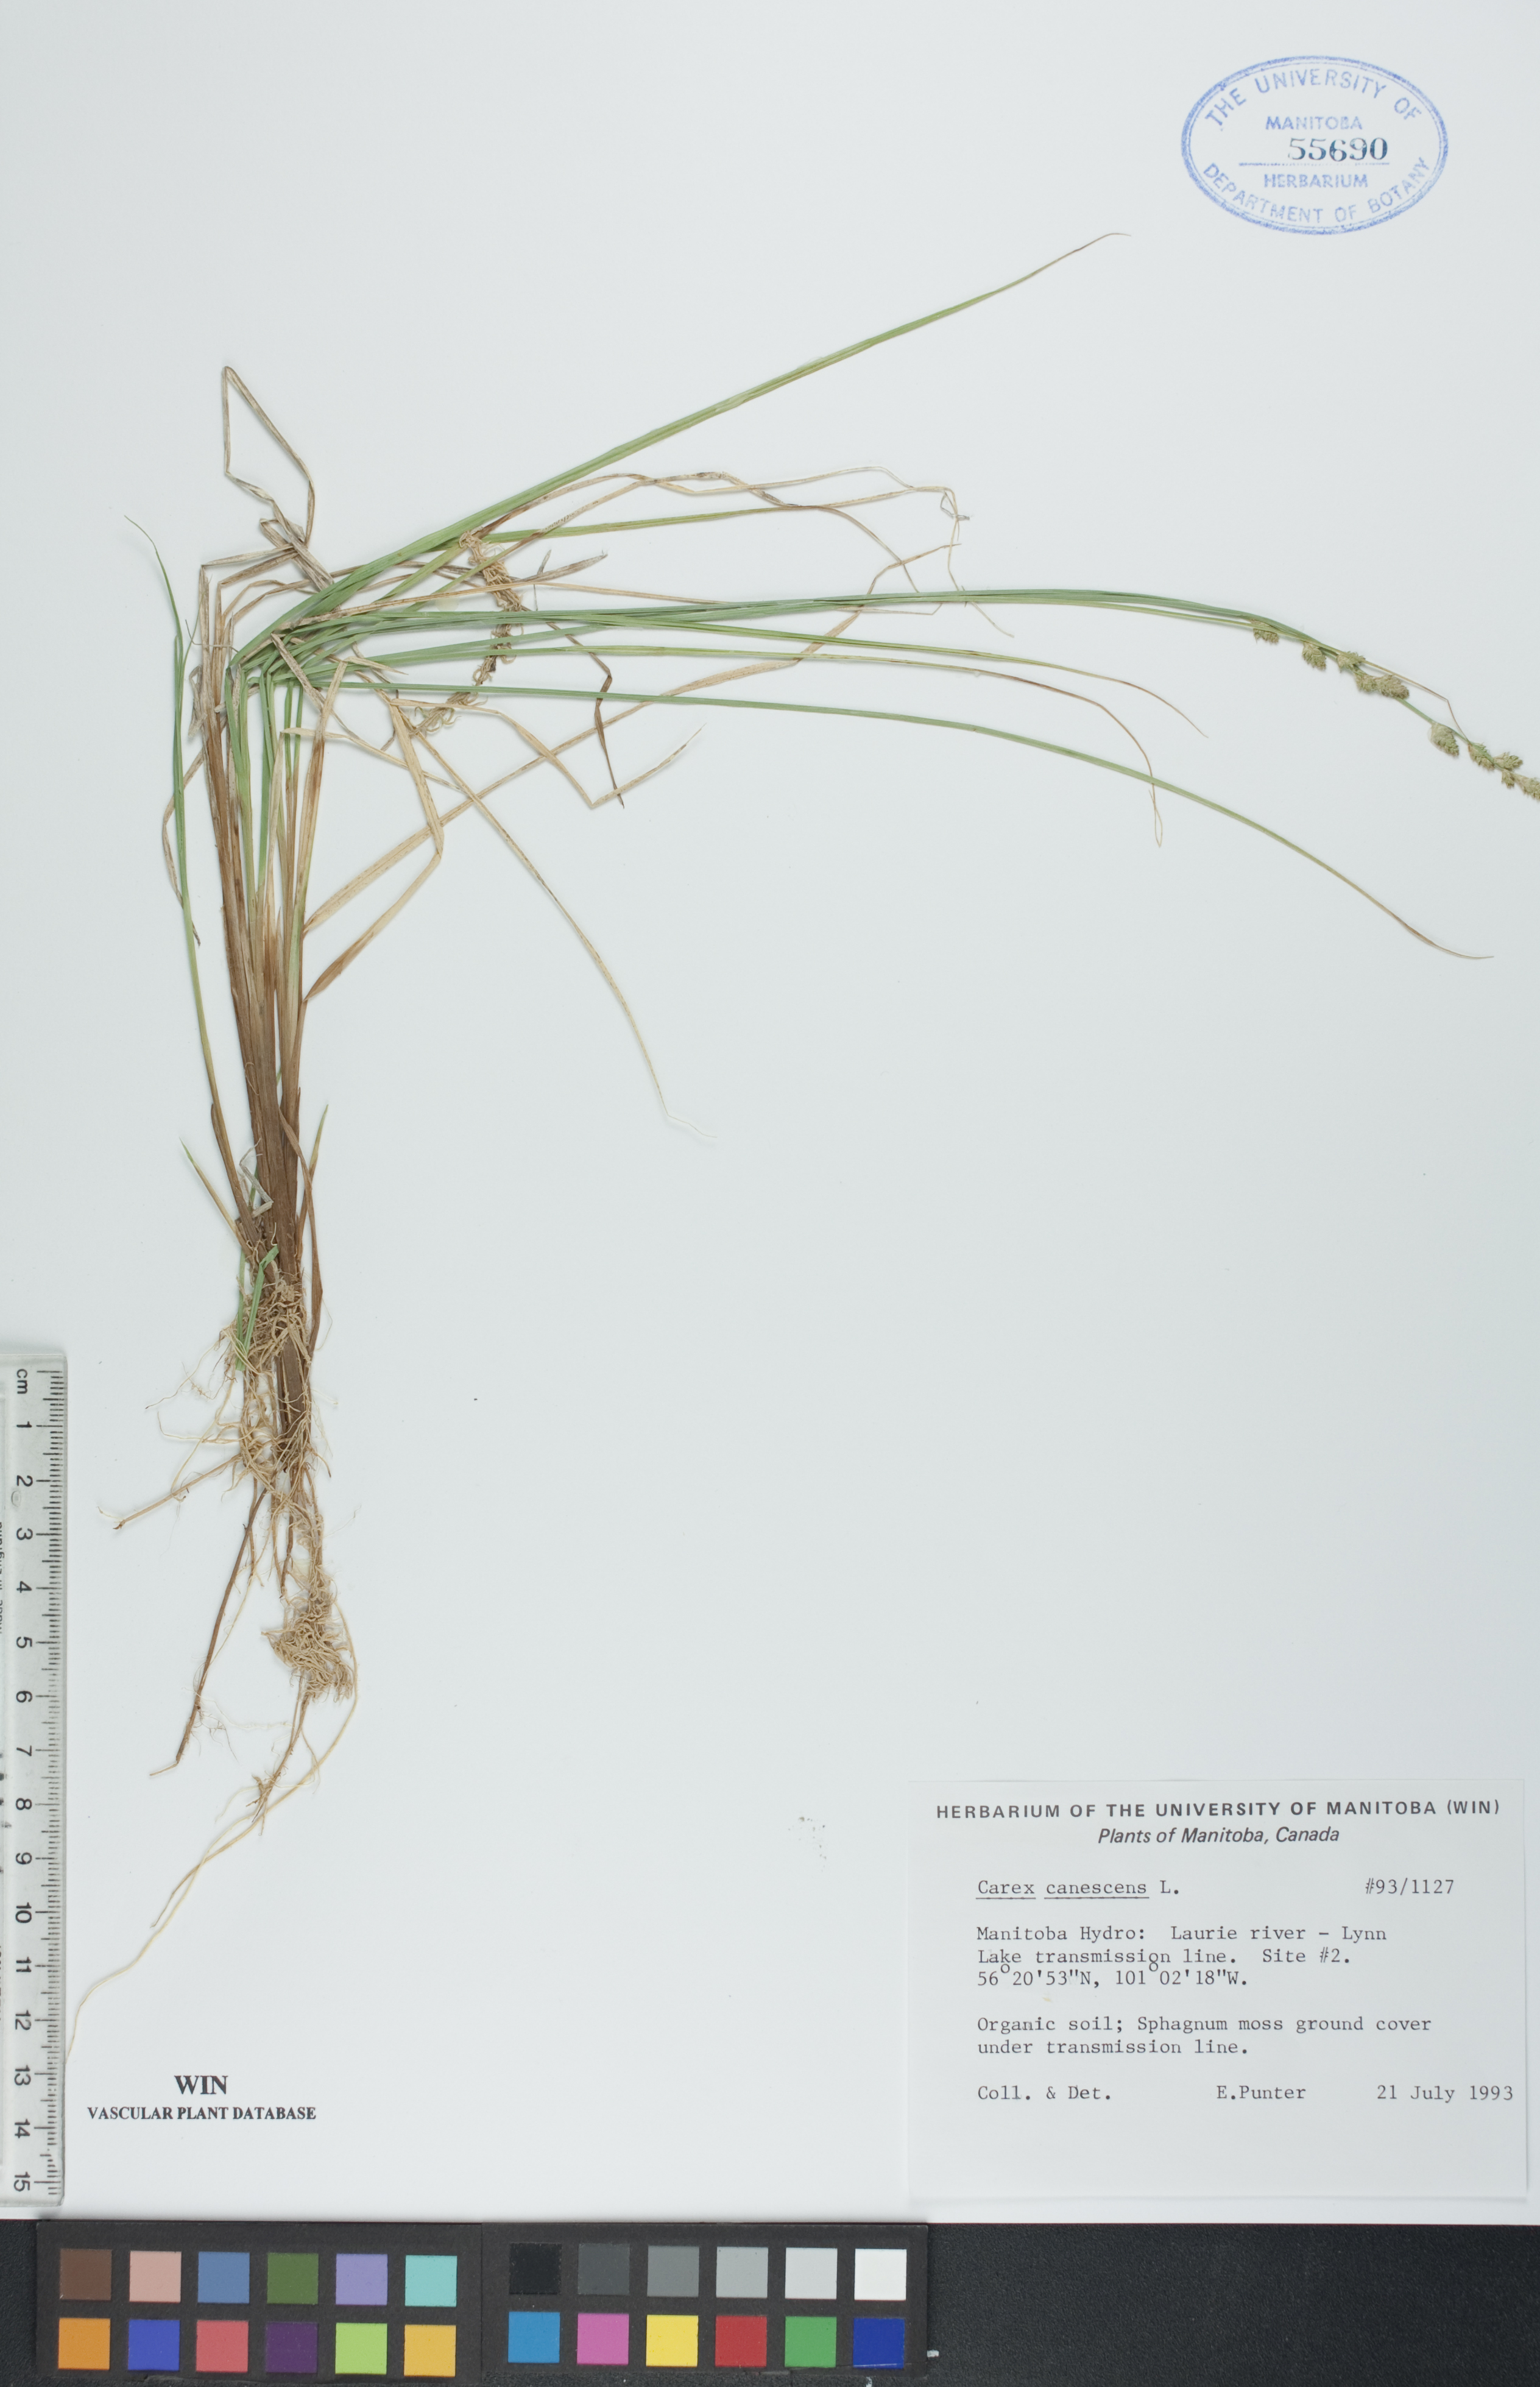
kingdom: Plantae
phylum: Tracheophyta
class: Liliopsida
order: Poales
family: Cyperaceae
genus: Carex
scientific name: Carex canescens
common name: White sedge
